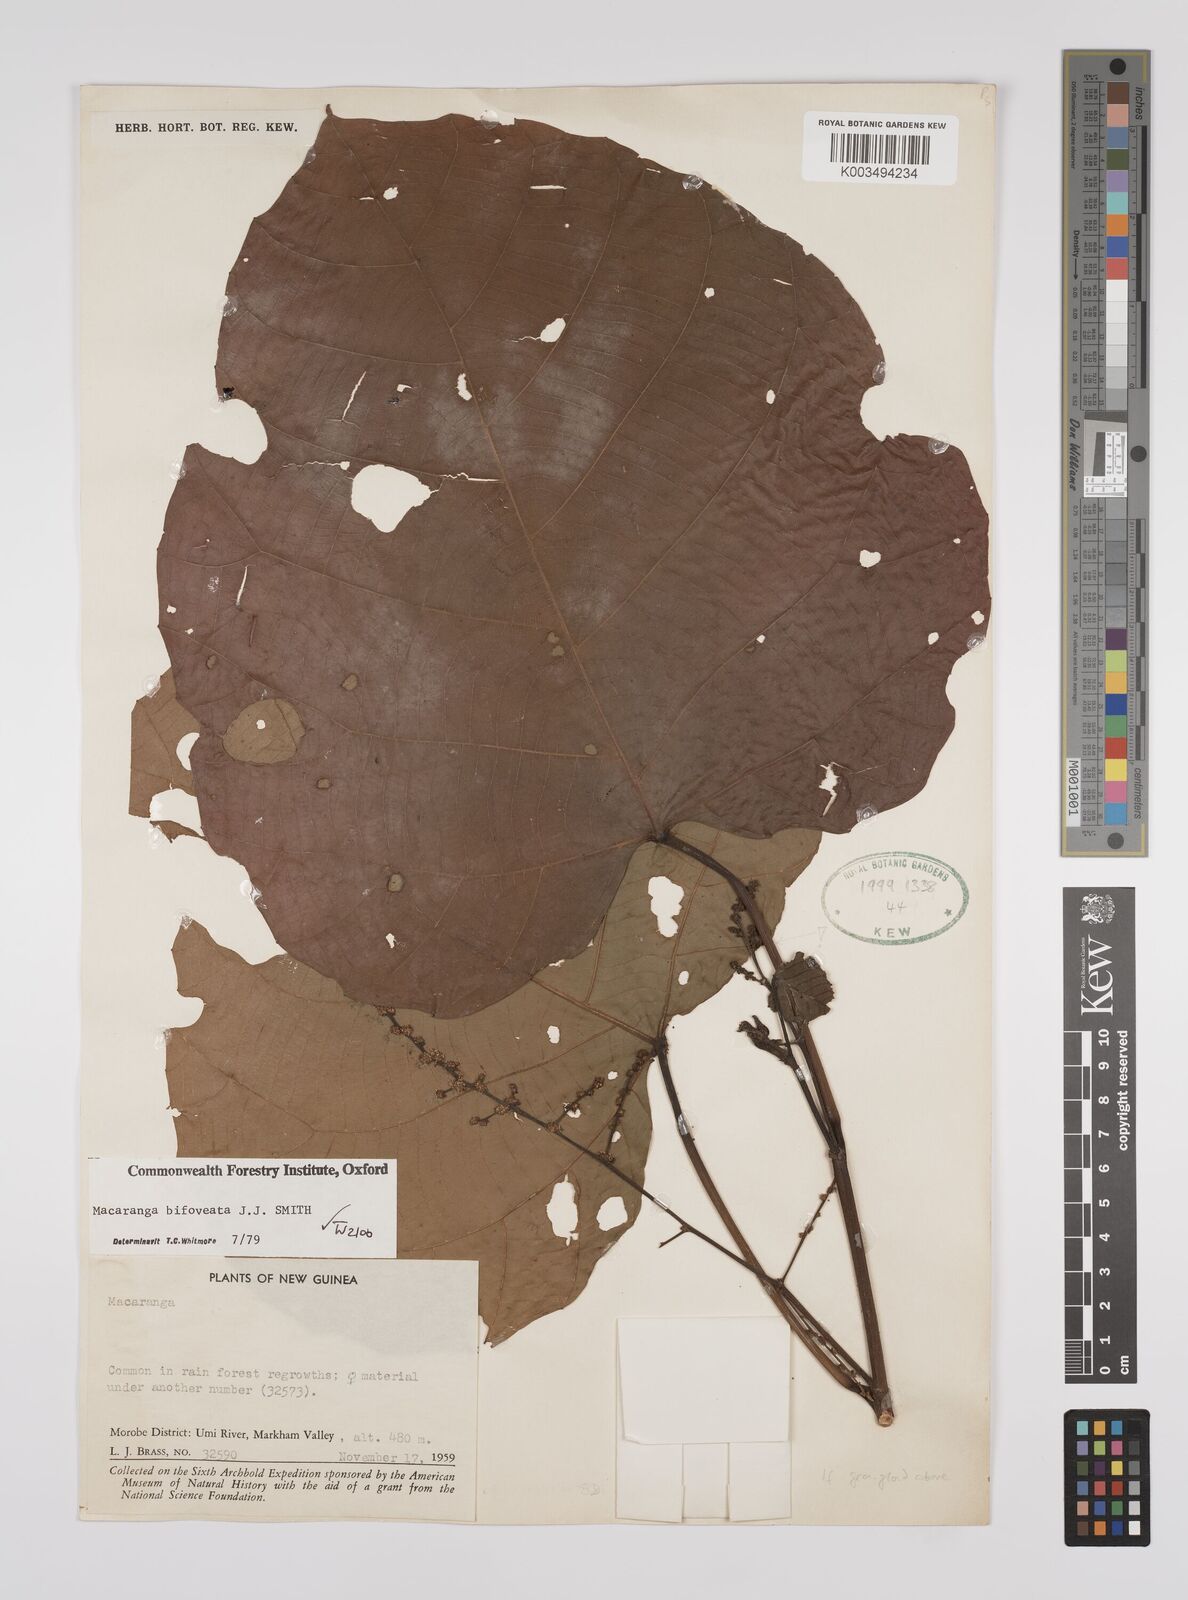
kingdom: Plantae
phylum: Tracheophyta
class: Magnoliopsida
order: Malpighiales
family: Euphorbiaceae
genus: Macaranga
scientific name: Macaranga bifoveata
